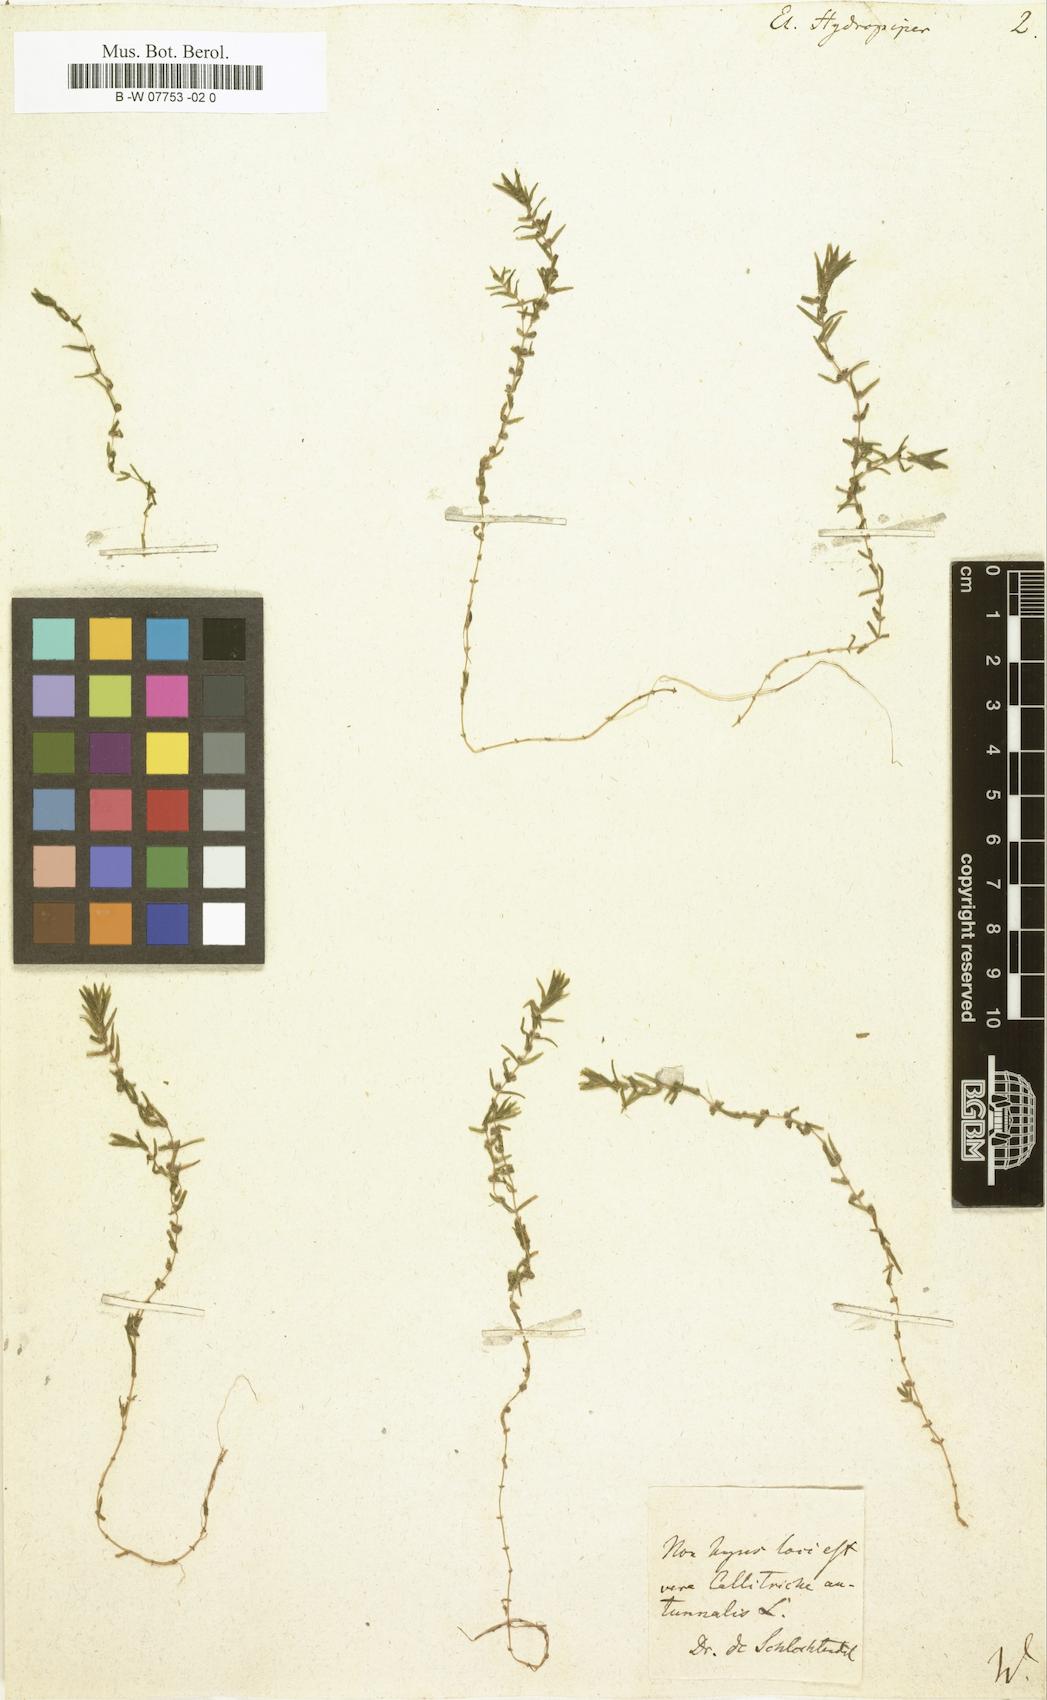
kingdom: Plantae
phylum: Tracheophyta
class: Magnoliopsida
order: Malpighiales
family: Elatinaceae
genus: Elatine
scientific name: Elatine hydropiper
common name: Eight-stamened waterwort
